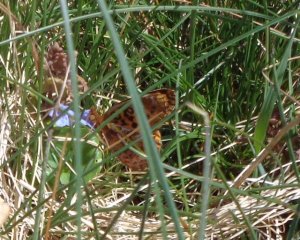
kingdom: Animalia
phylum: Arthropoda
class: Insecta
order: Lepidoptera
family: Nymphalidae
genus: Clossiana
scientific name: Clossiana toddi
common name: Meadow Fritillary
